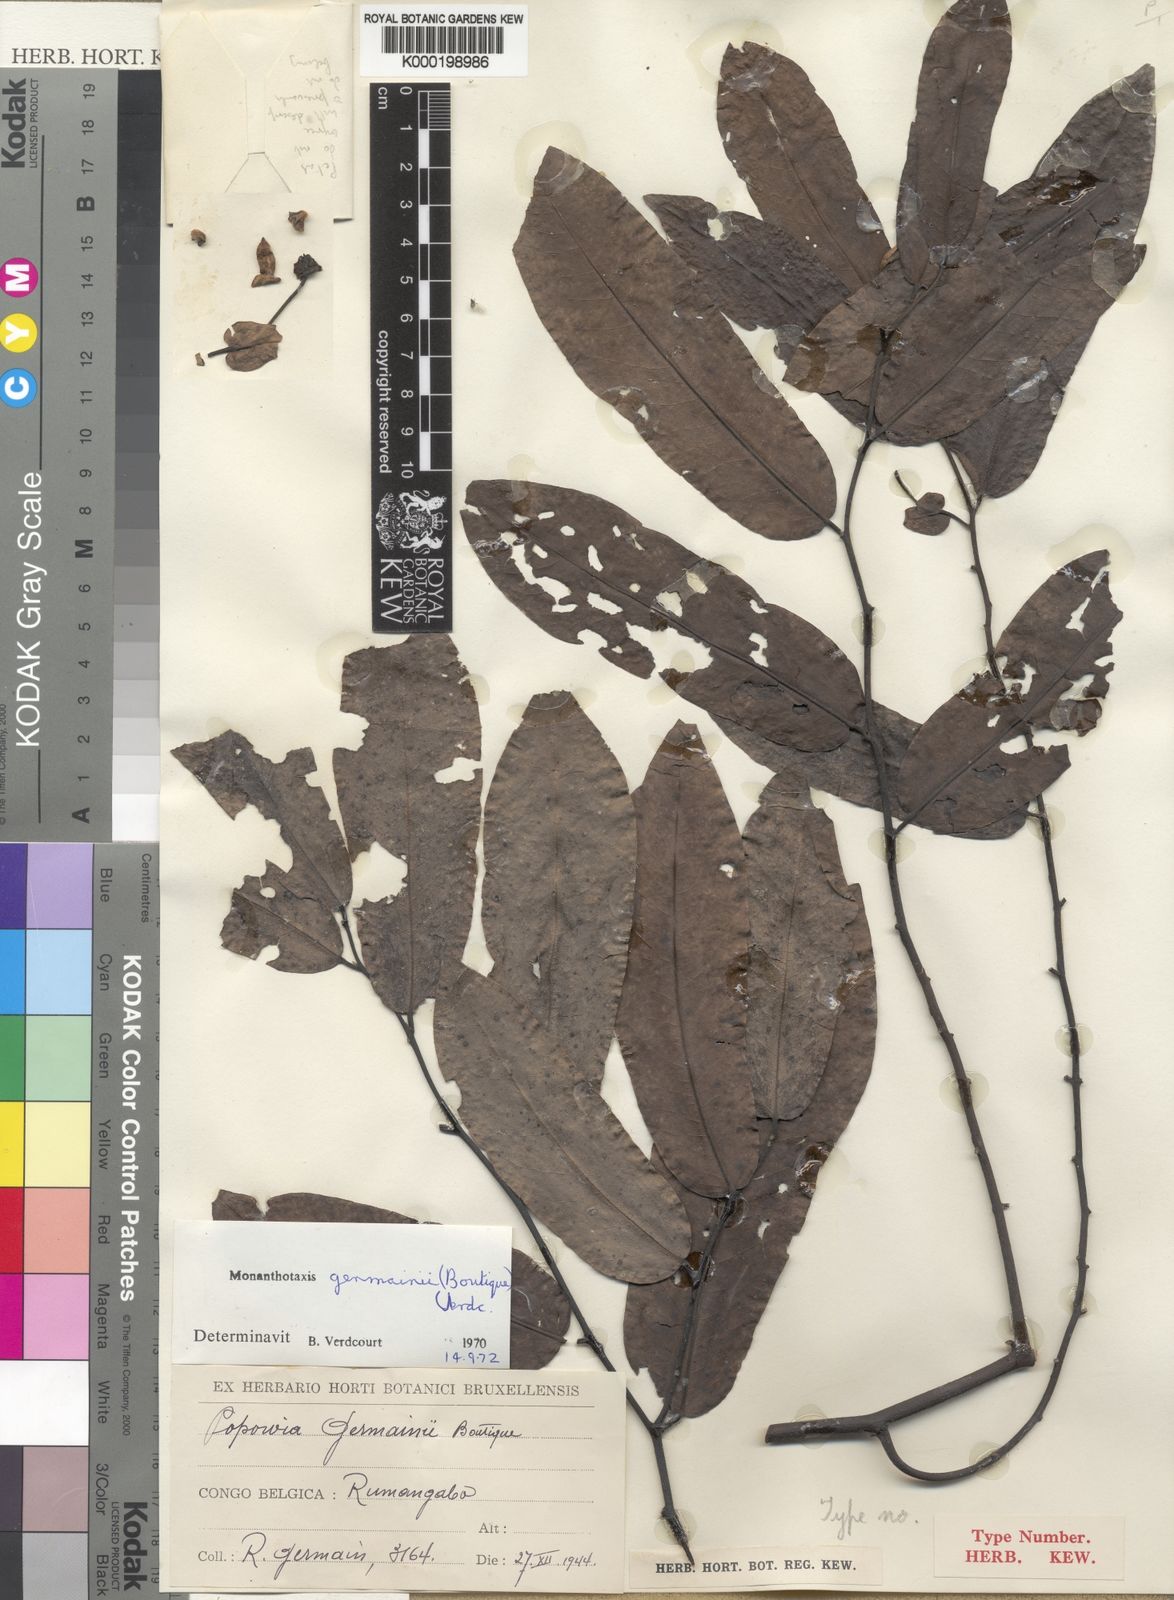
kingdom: Plantae
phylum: Tracheophyta
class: Magnoliopsida
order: Magnoliales
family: Annonaceae
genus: Monanthotaxis
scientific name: Monanthotaxis germainii
